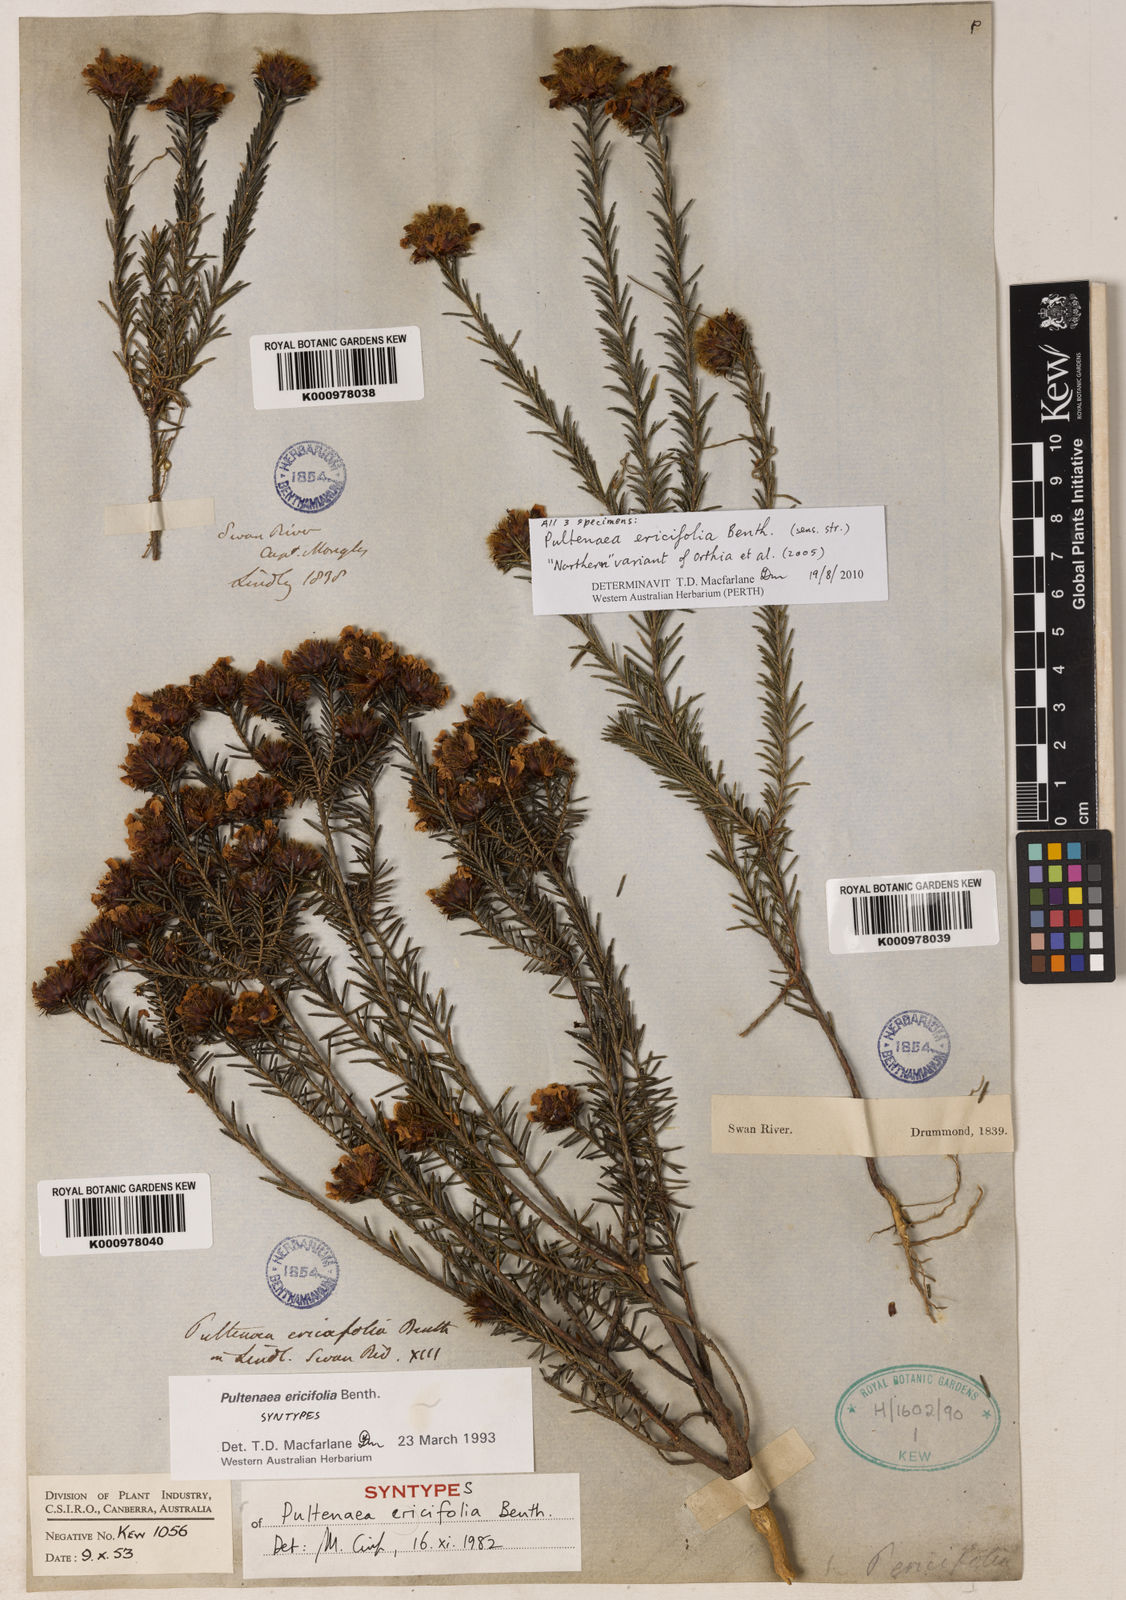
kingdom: Plantae
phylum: Tracheophyta
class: Magnoliopsida
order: Fabales
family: Fabaceae
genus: Pultenaea
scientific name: Pultenaea
